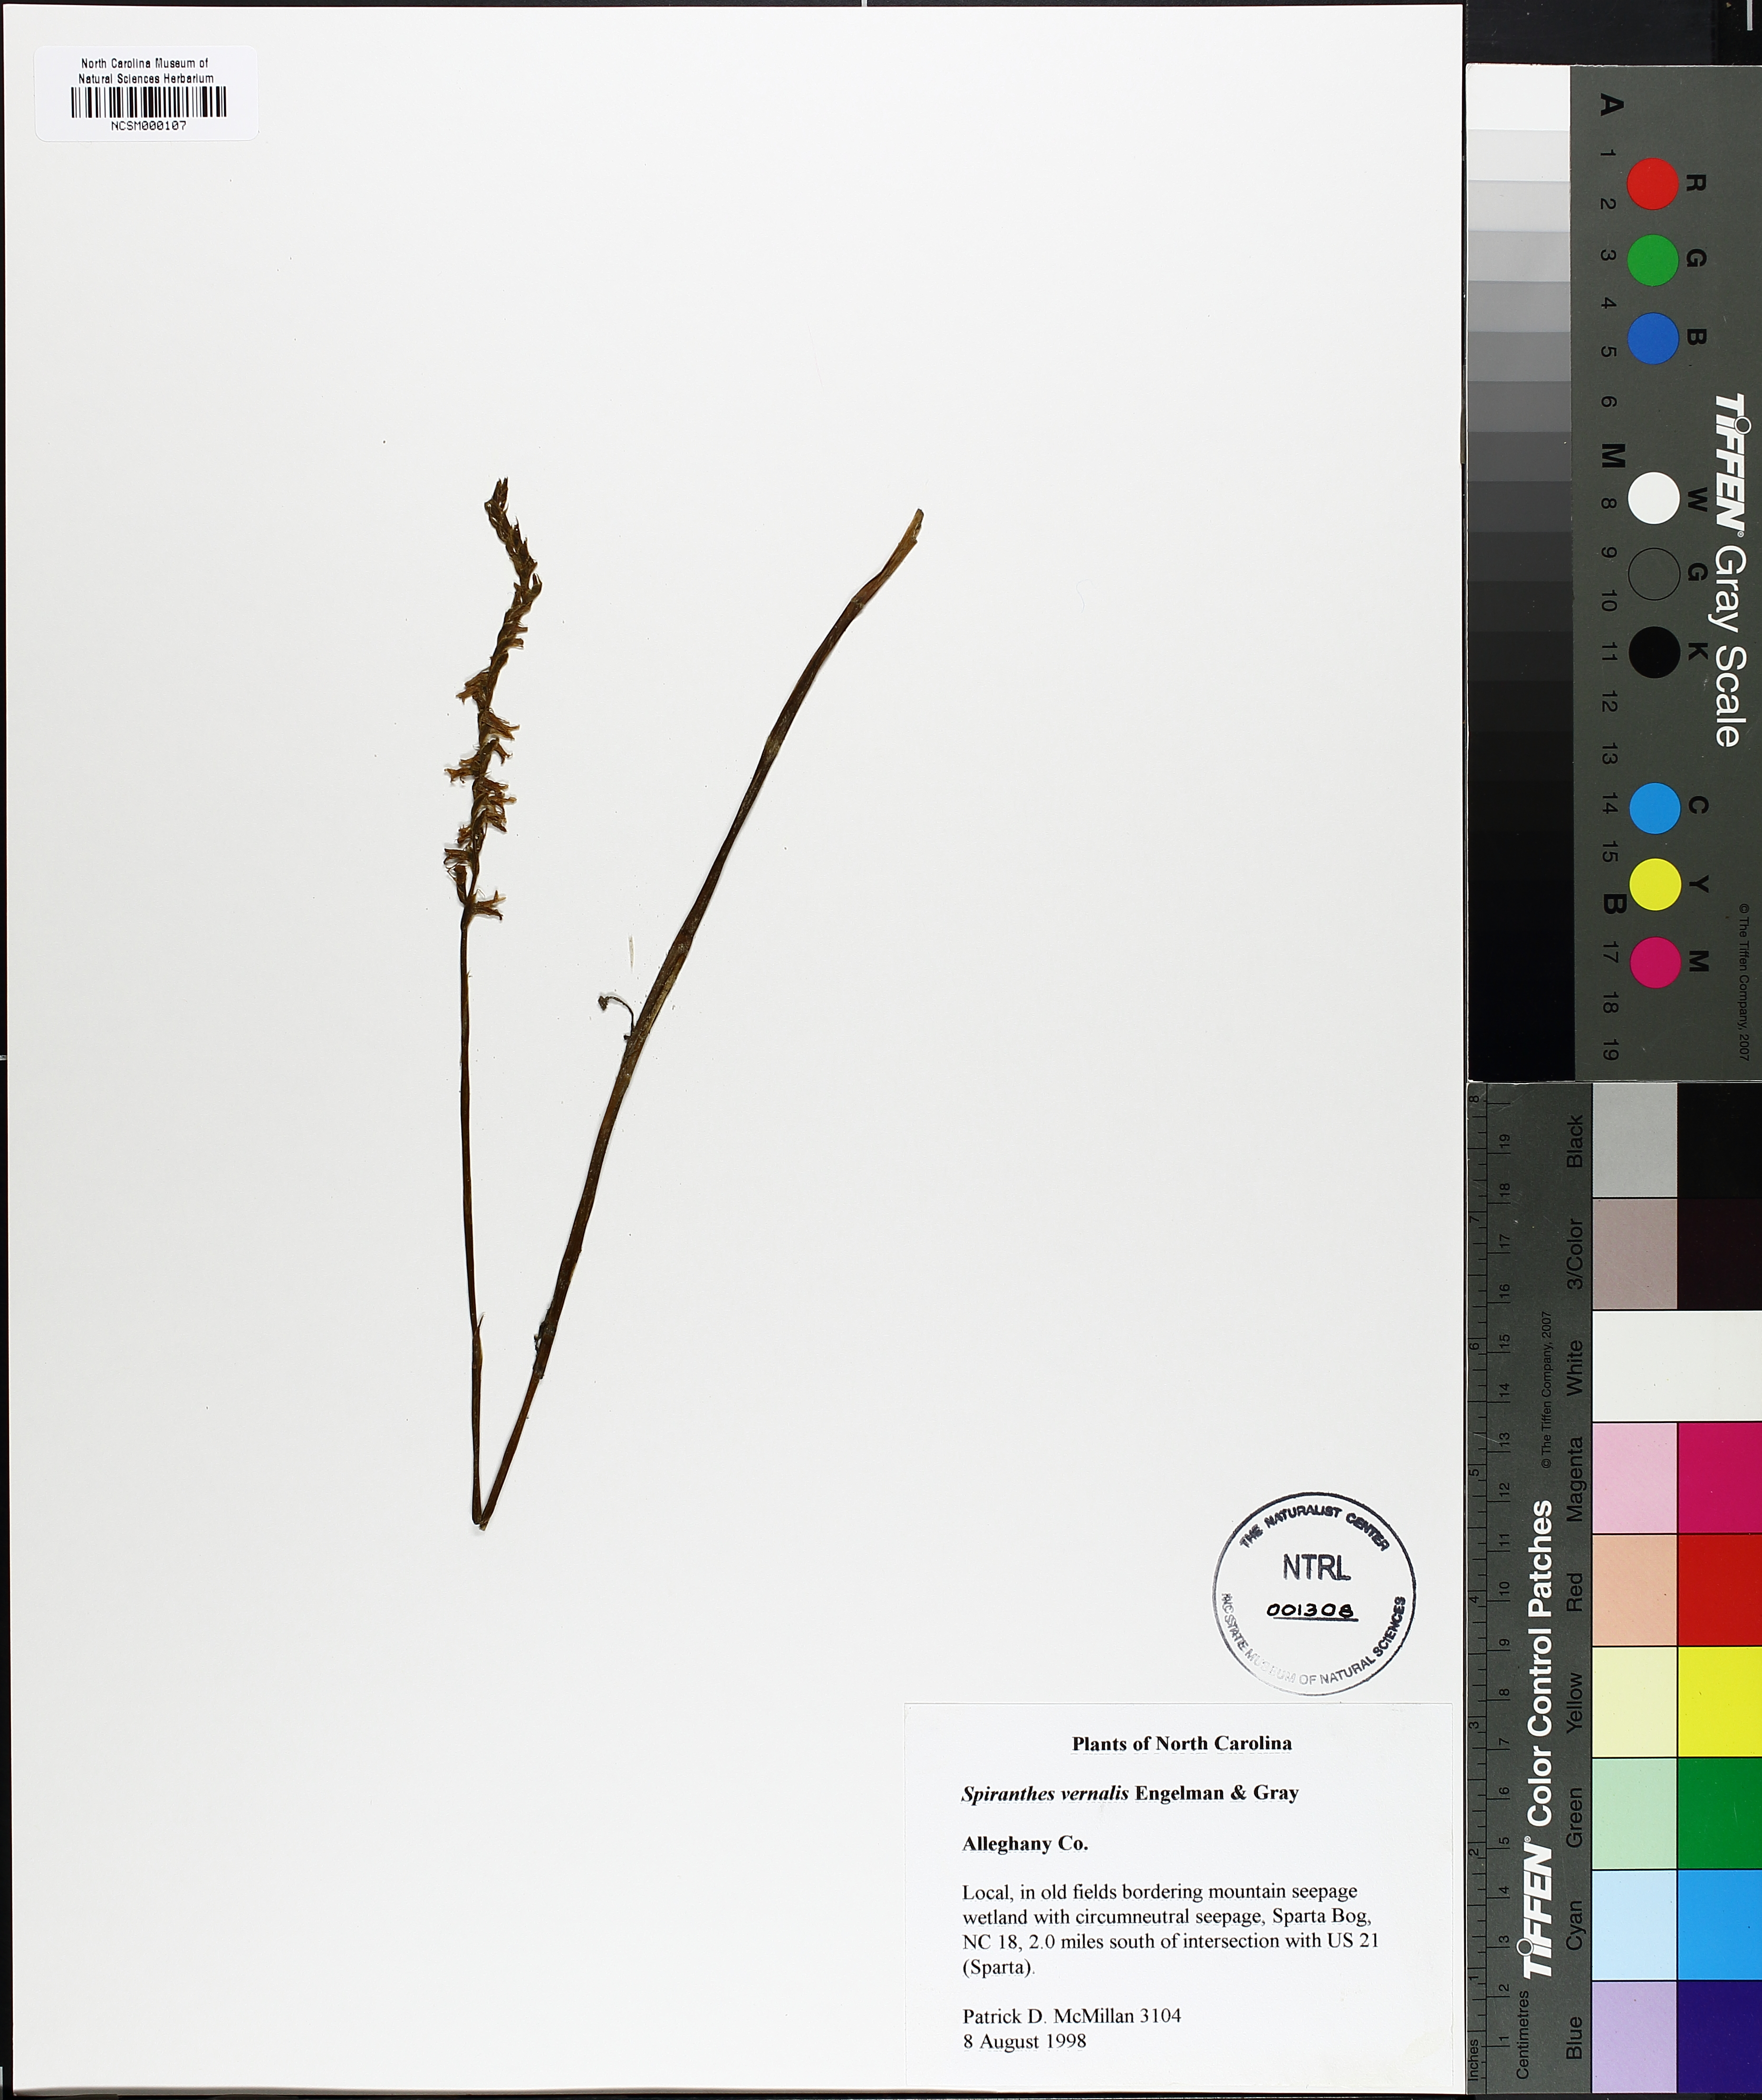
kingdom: Plantae
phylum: Tracheophyta
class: Liliopsida
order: Asparagales
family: Orchidaceae
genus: Spiranthes
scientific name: Spiranthes vernalis
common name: Spring ladies'-tresses
